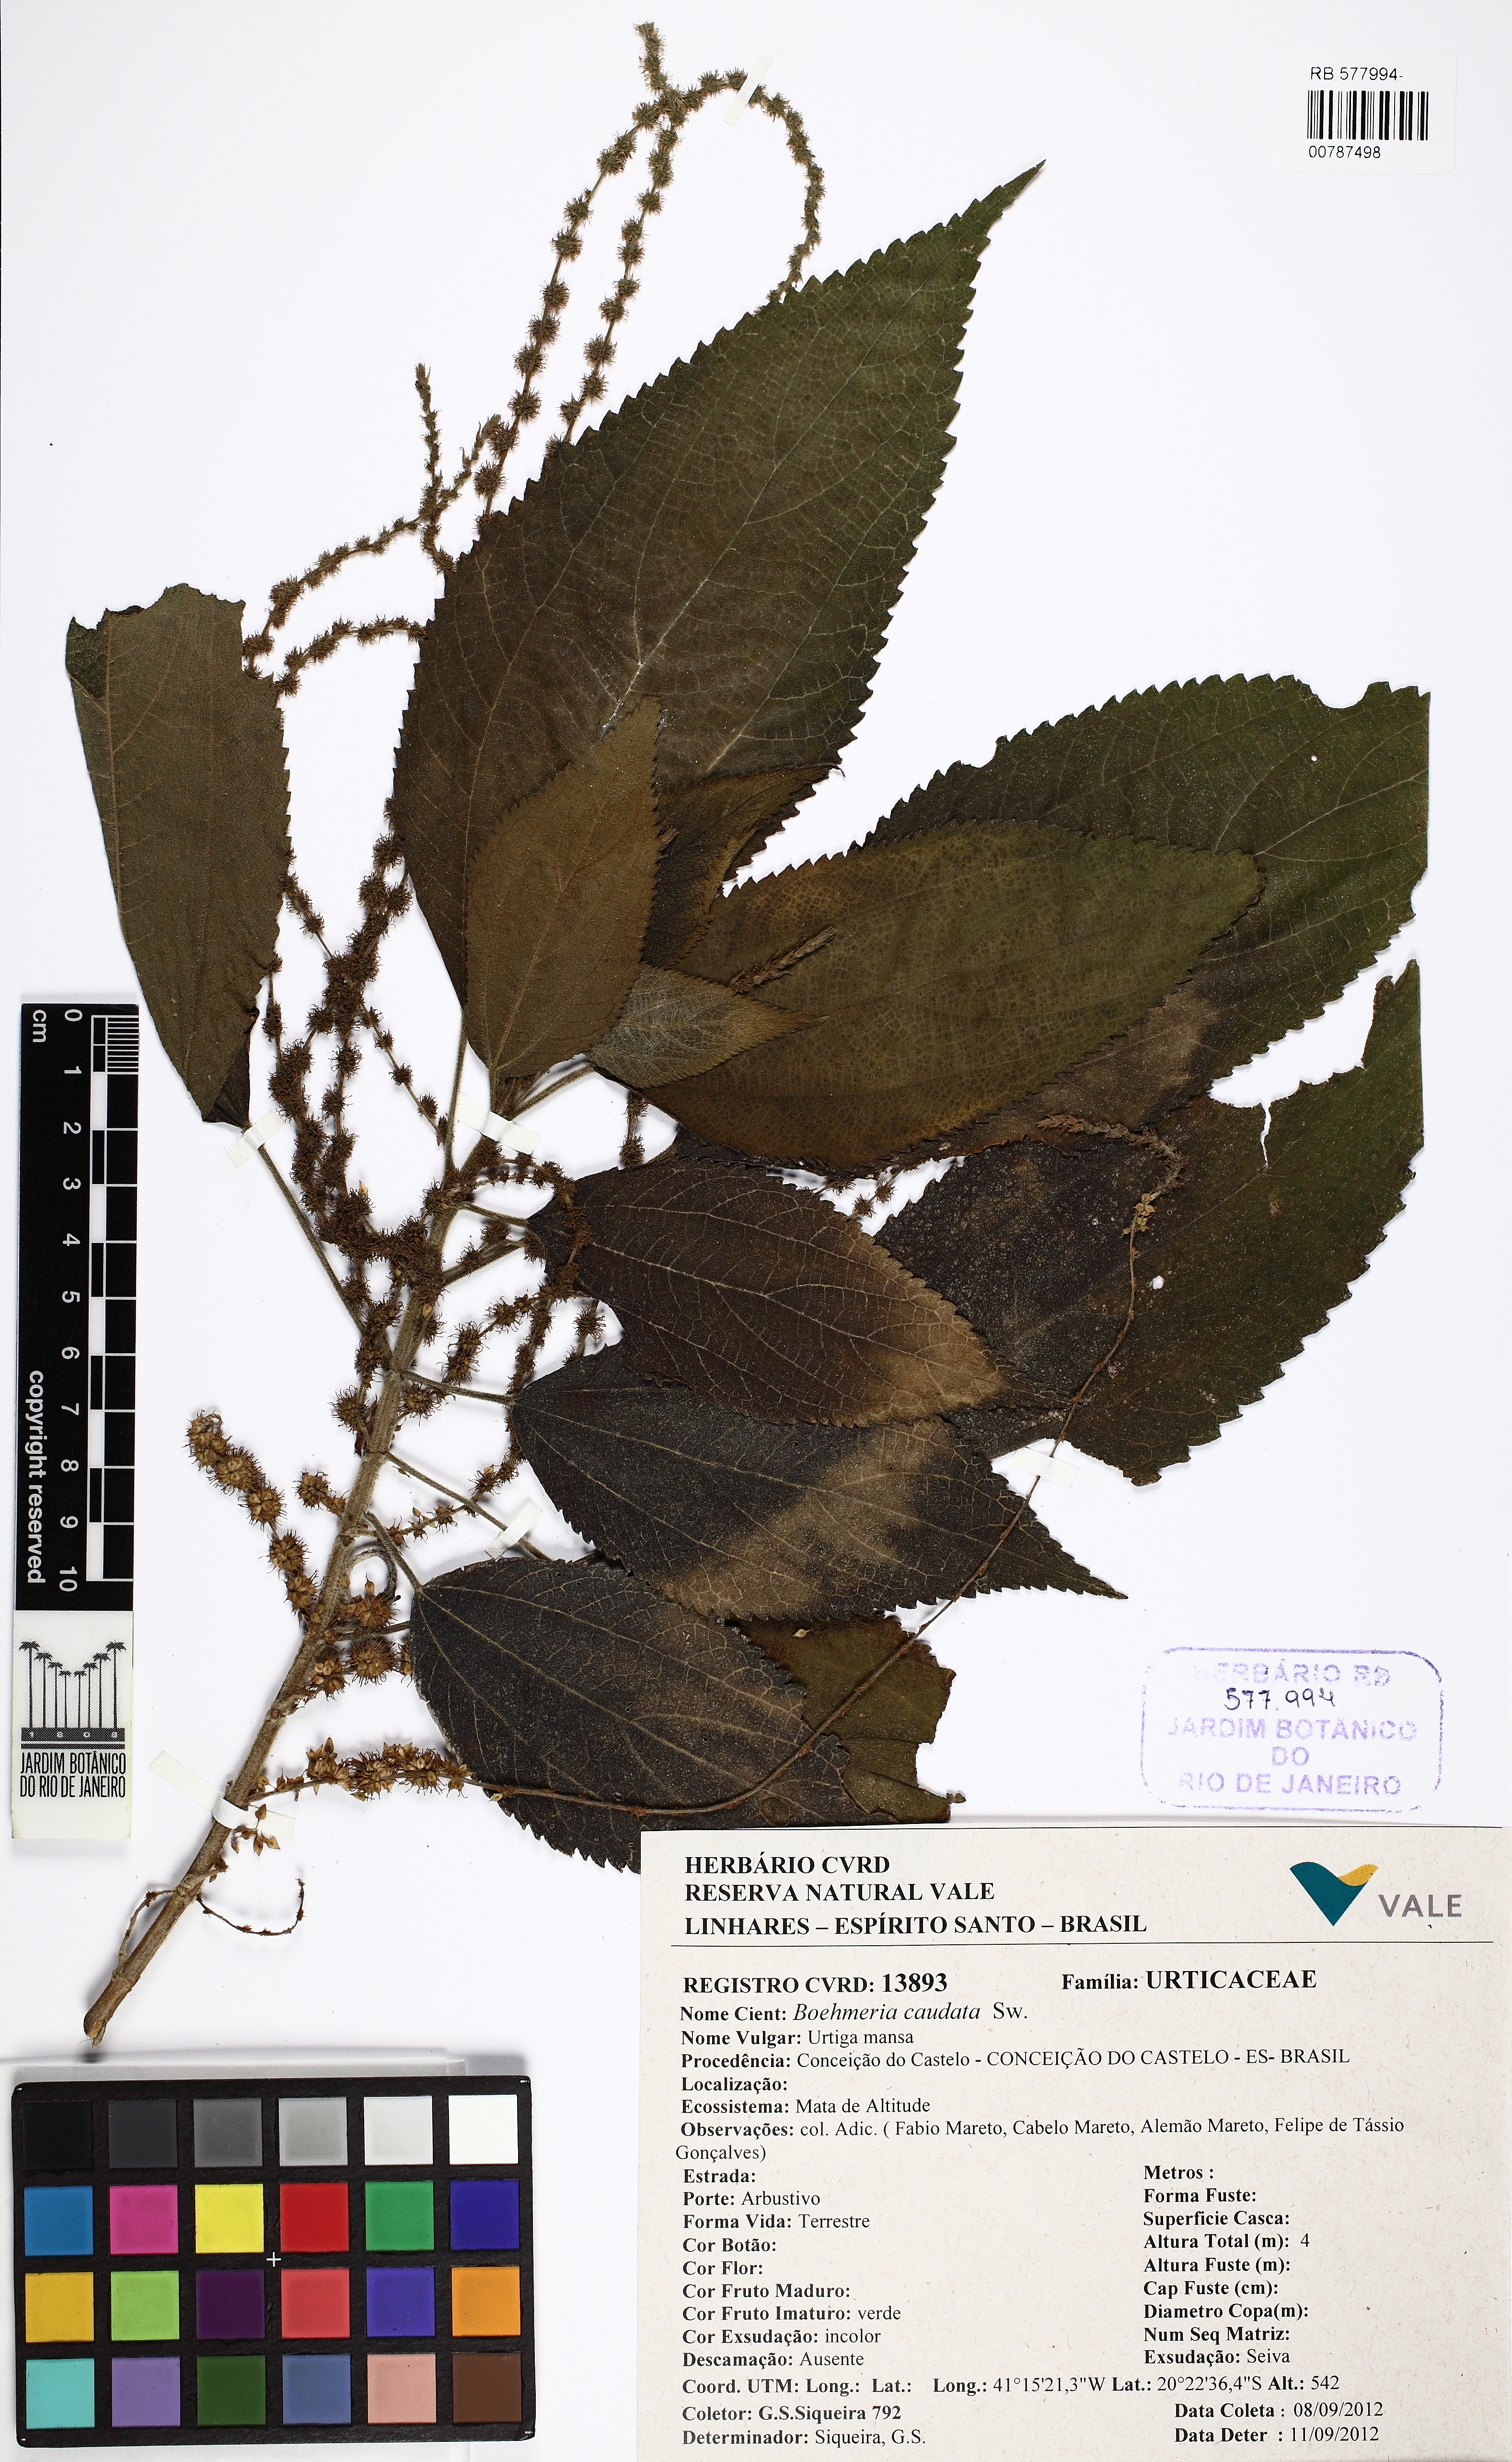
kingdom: Plantae
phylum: Tracheophyta
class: Magnoliopsida
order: Rosales
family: Urticaceae
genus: Boehmeria
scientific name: Boehmeria caudata
